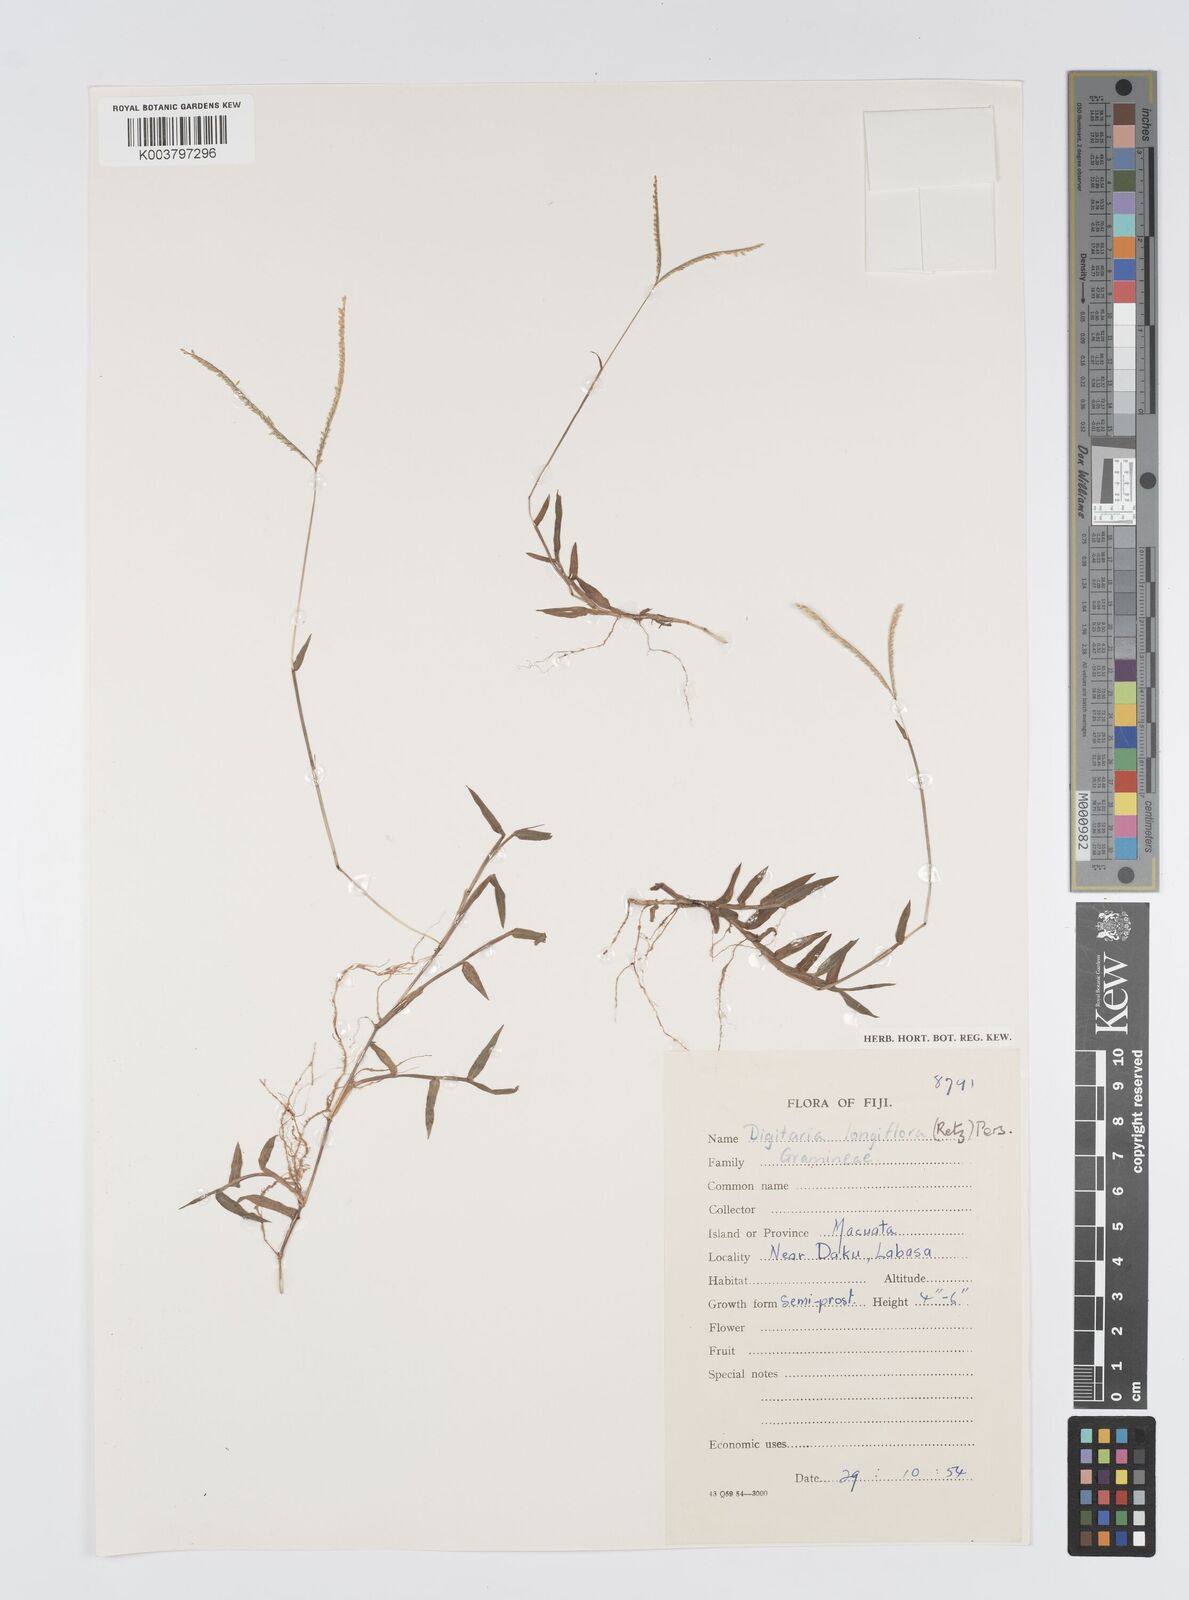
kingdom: Plantae
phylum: Tracheophyta
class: Liliopsida
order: Poales
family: Poaceae
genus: Digitaria
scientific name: Digitaria fuscescens
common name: Yellow crabgrass
